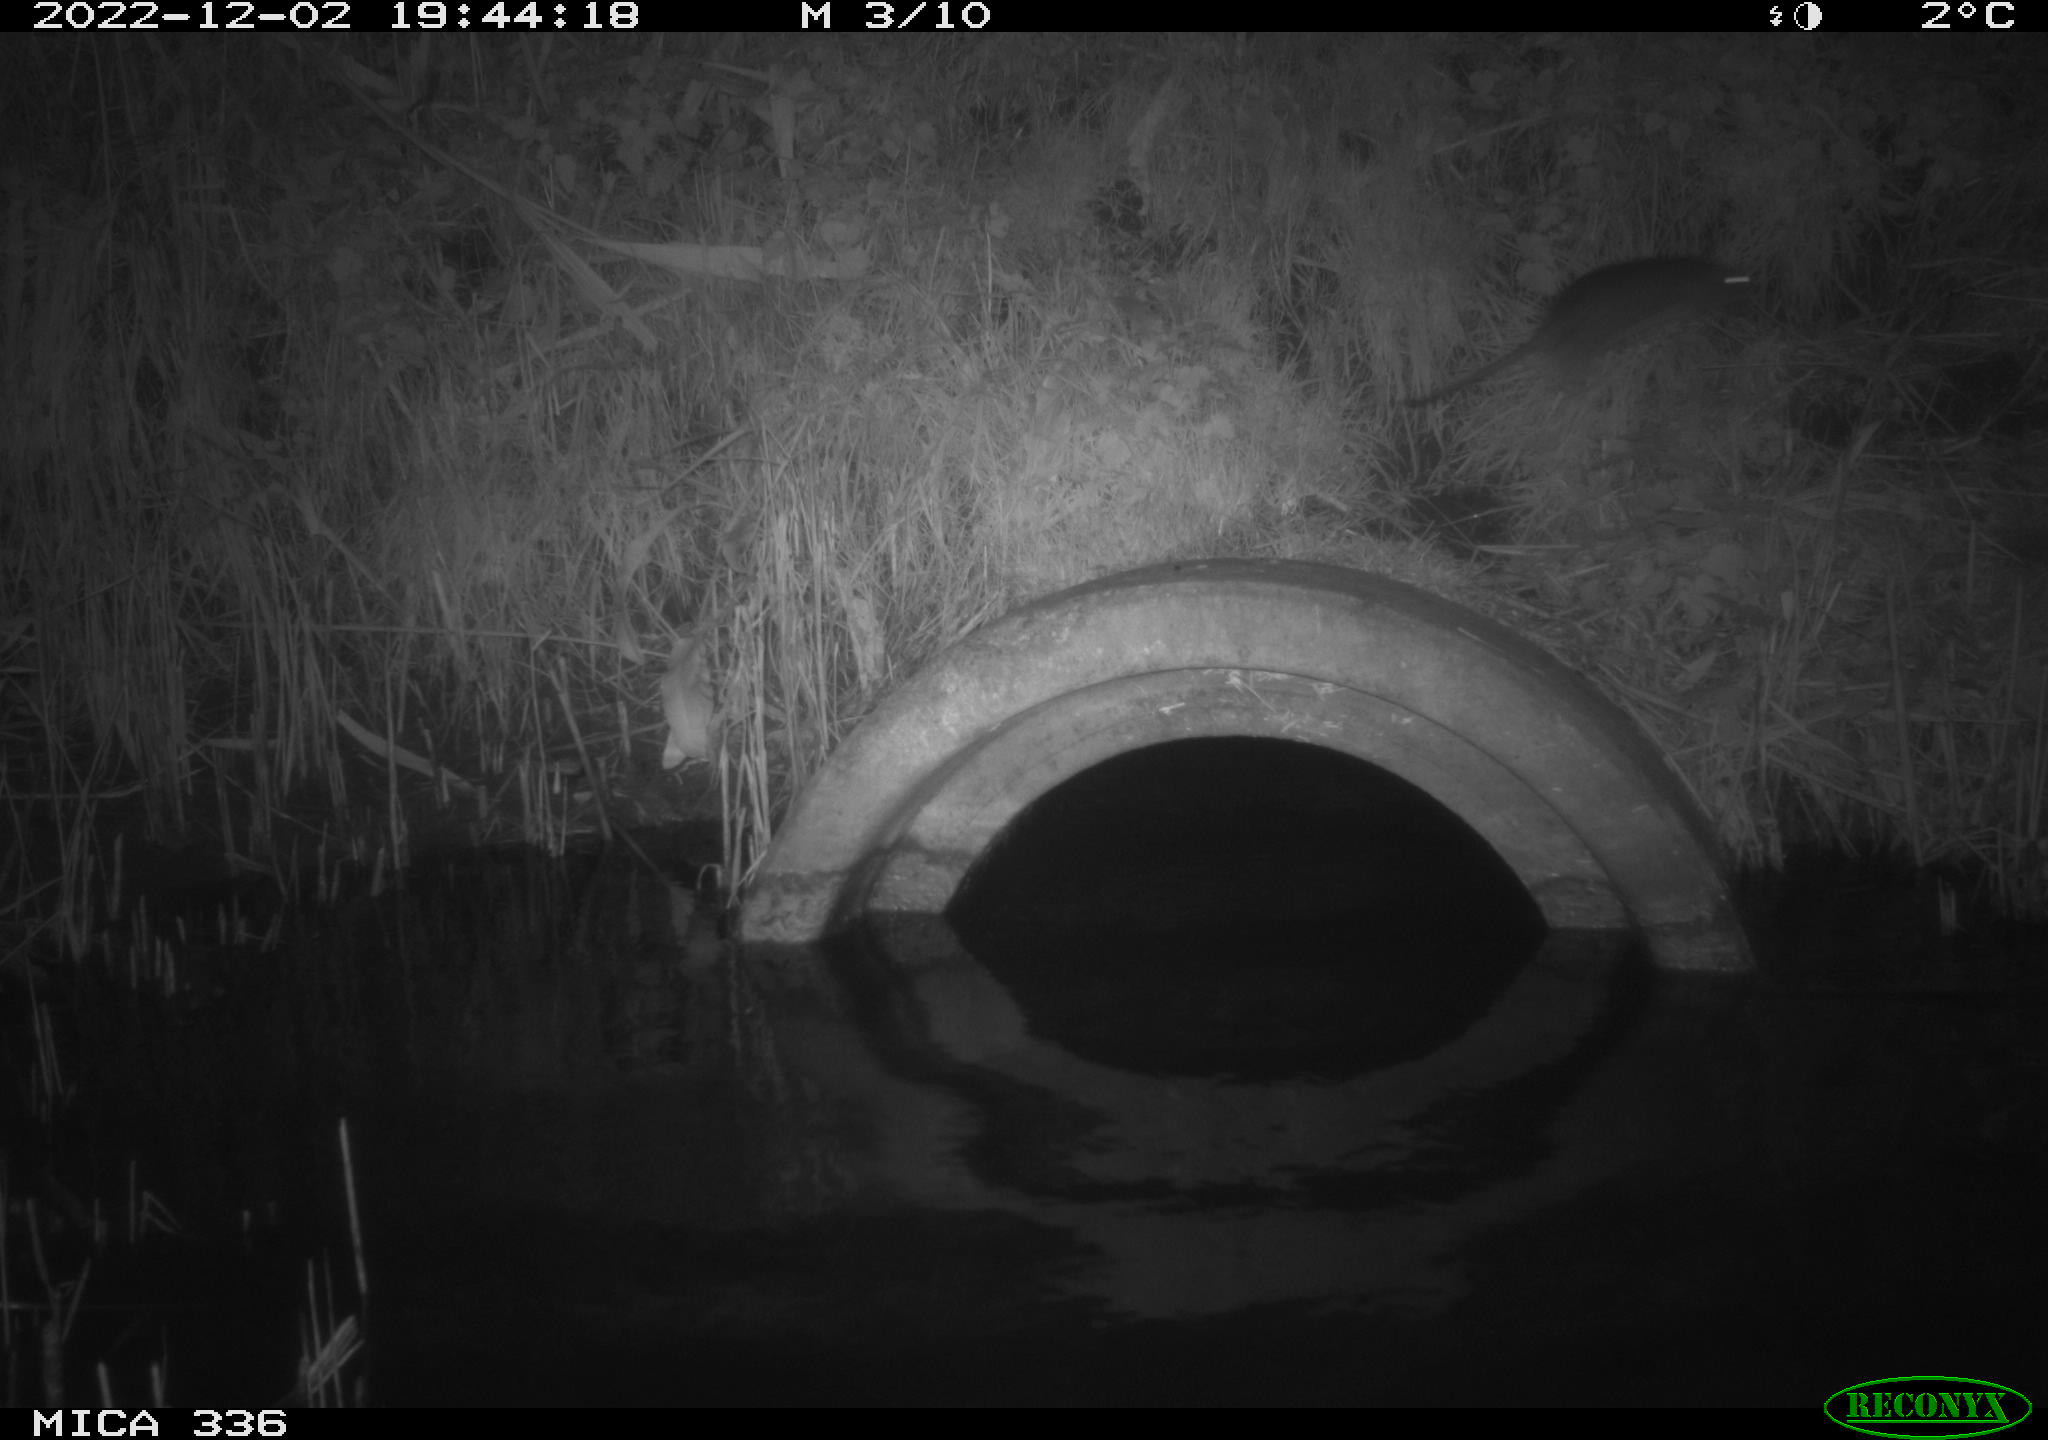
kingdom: Animalia
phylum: Chordata
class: Mammalia
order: Rodentia
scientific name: Rodentia
